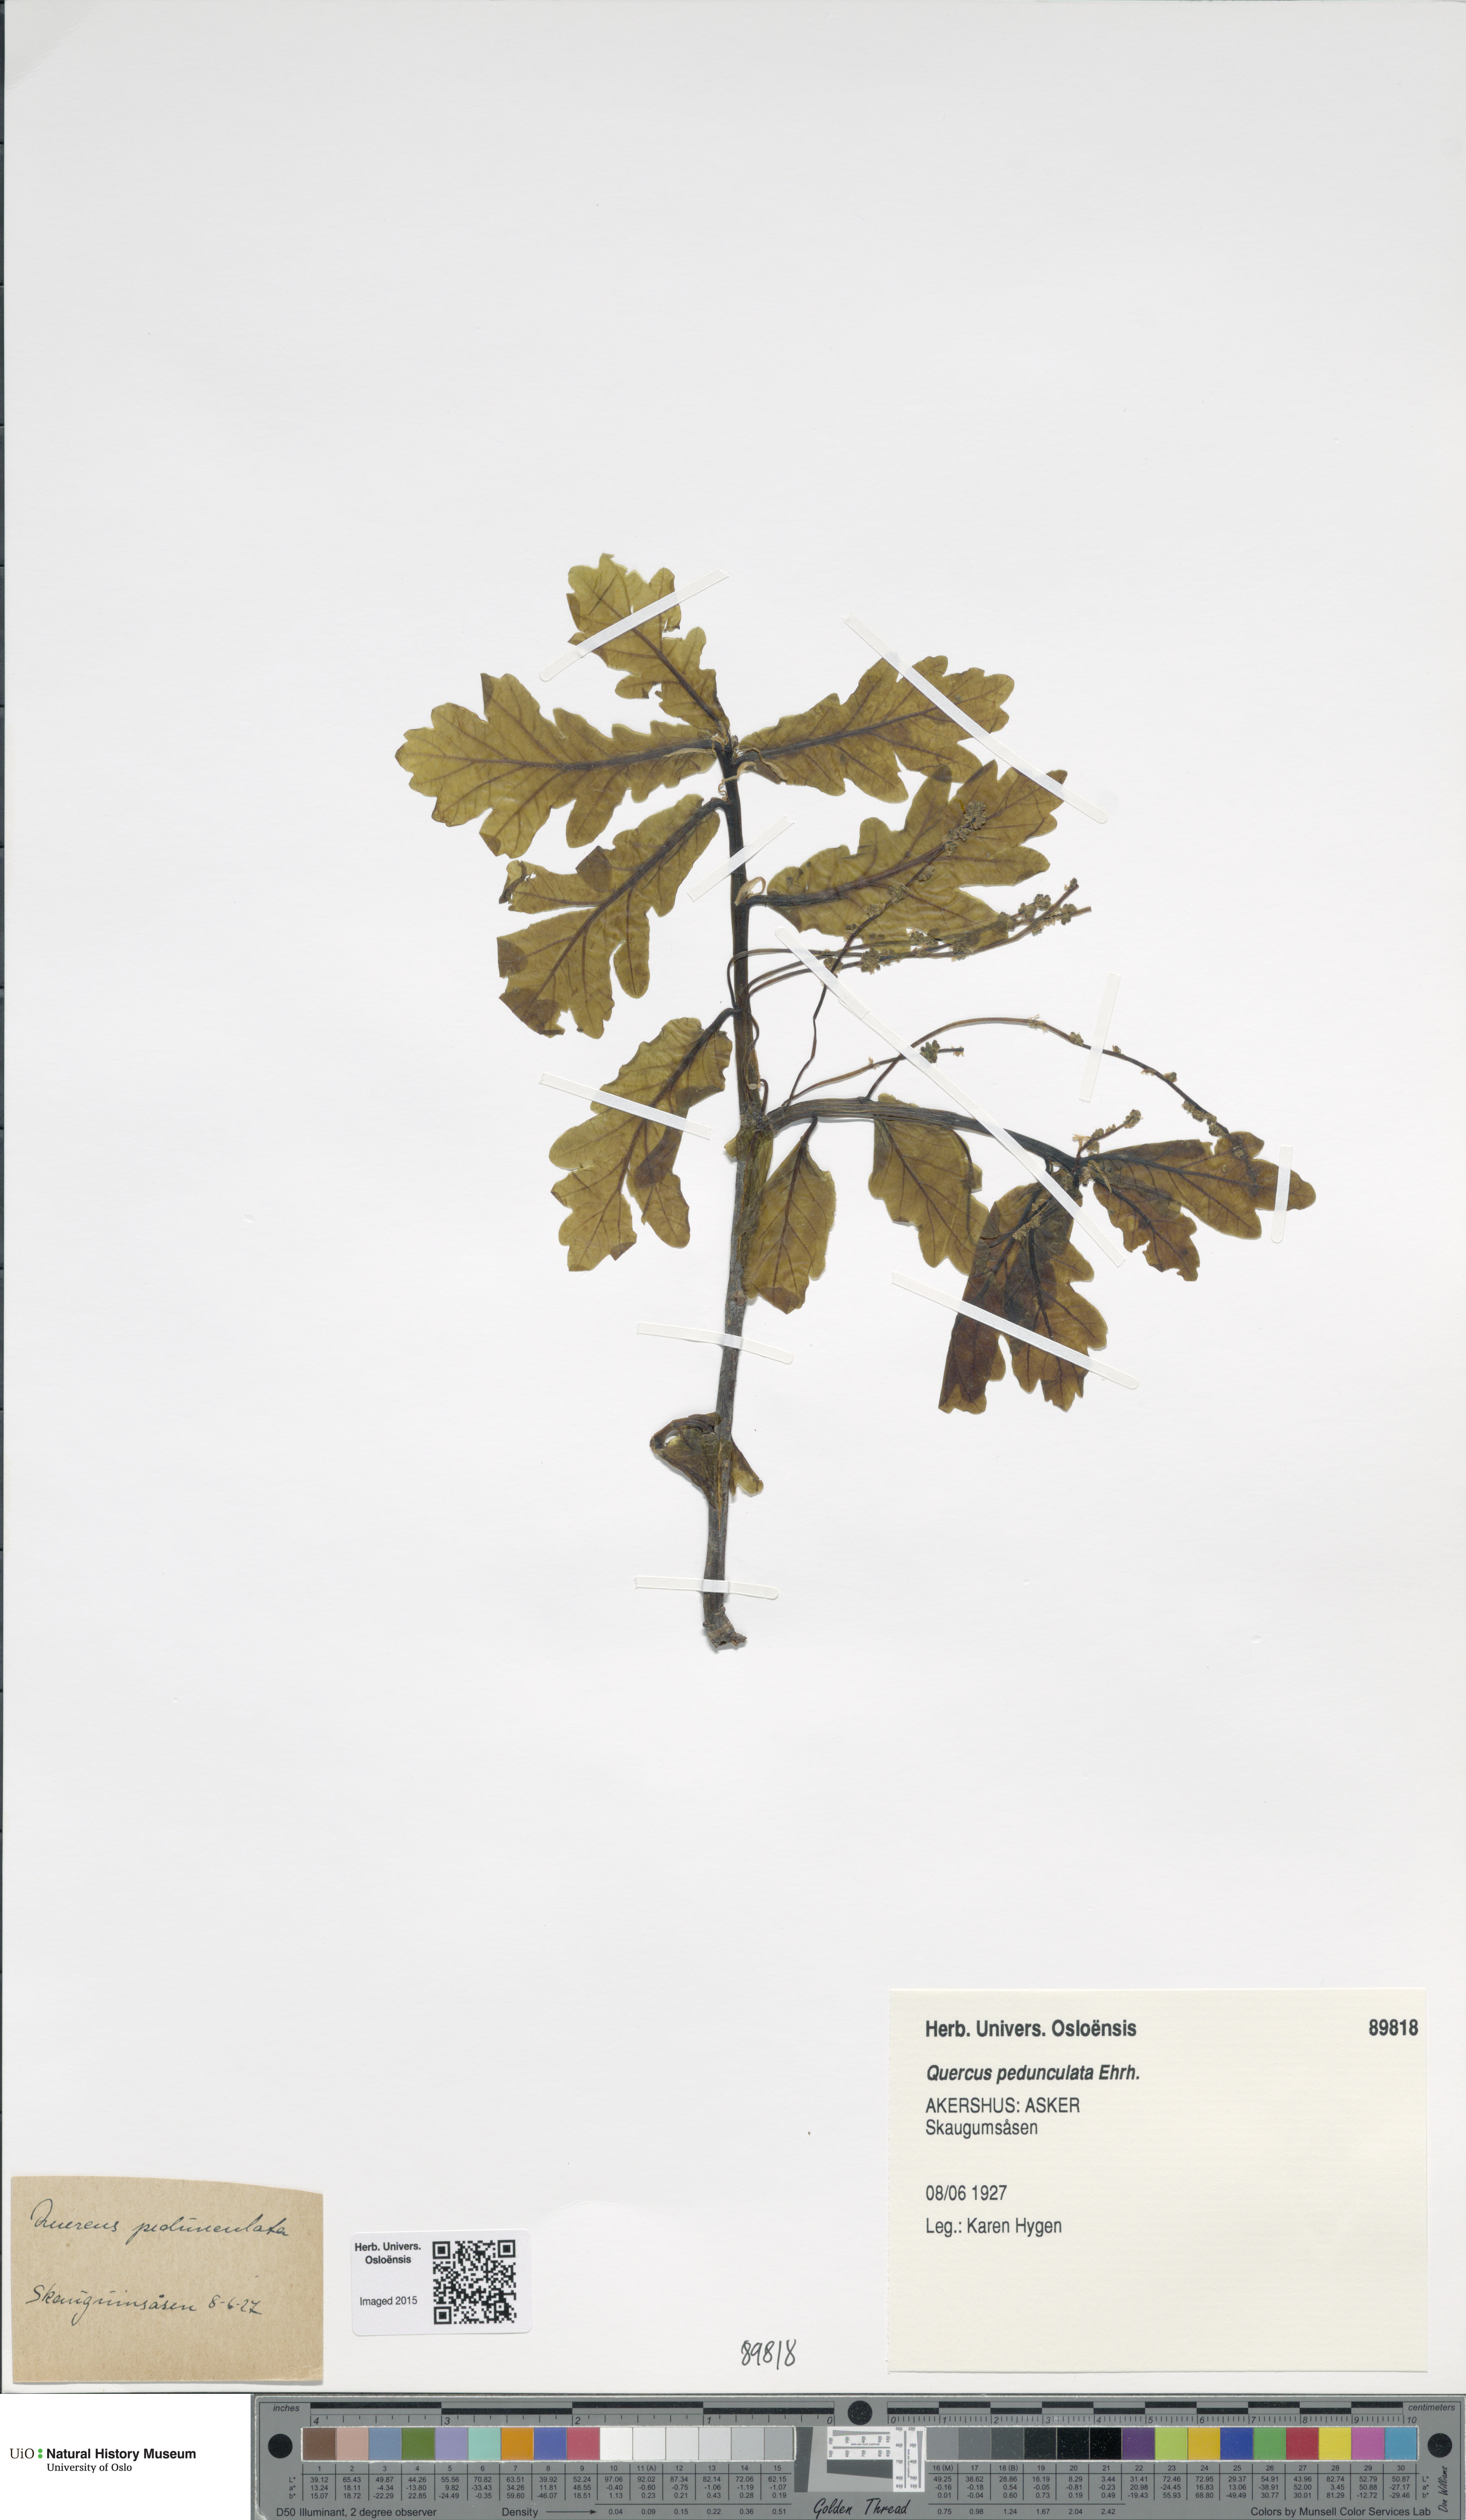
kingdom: Plantae
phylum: Tracheophyta
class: Magnoliopsida
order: Fagales
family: Fagaceae
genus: Quercus
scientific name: Quercus robur
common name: Pedunculate oak
